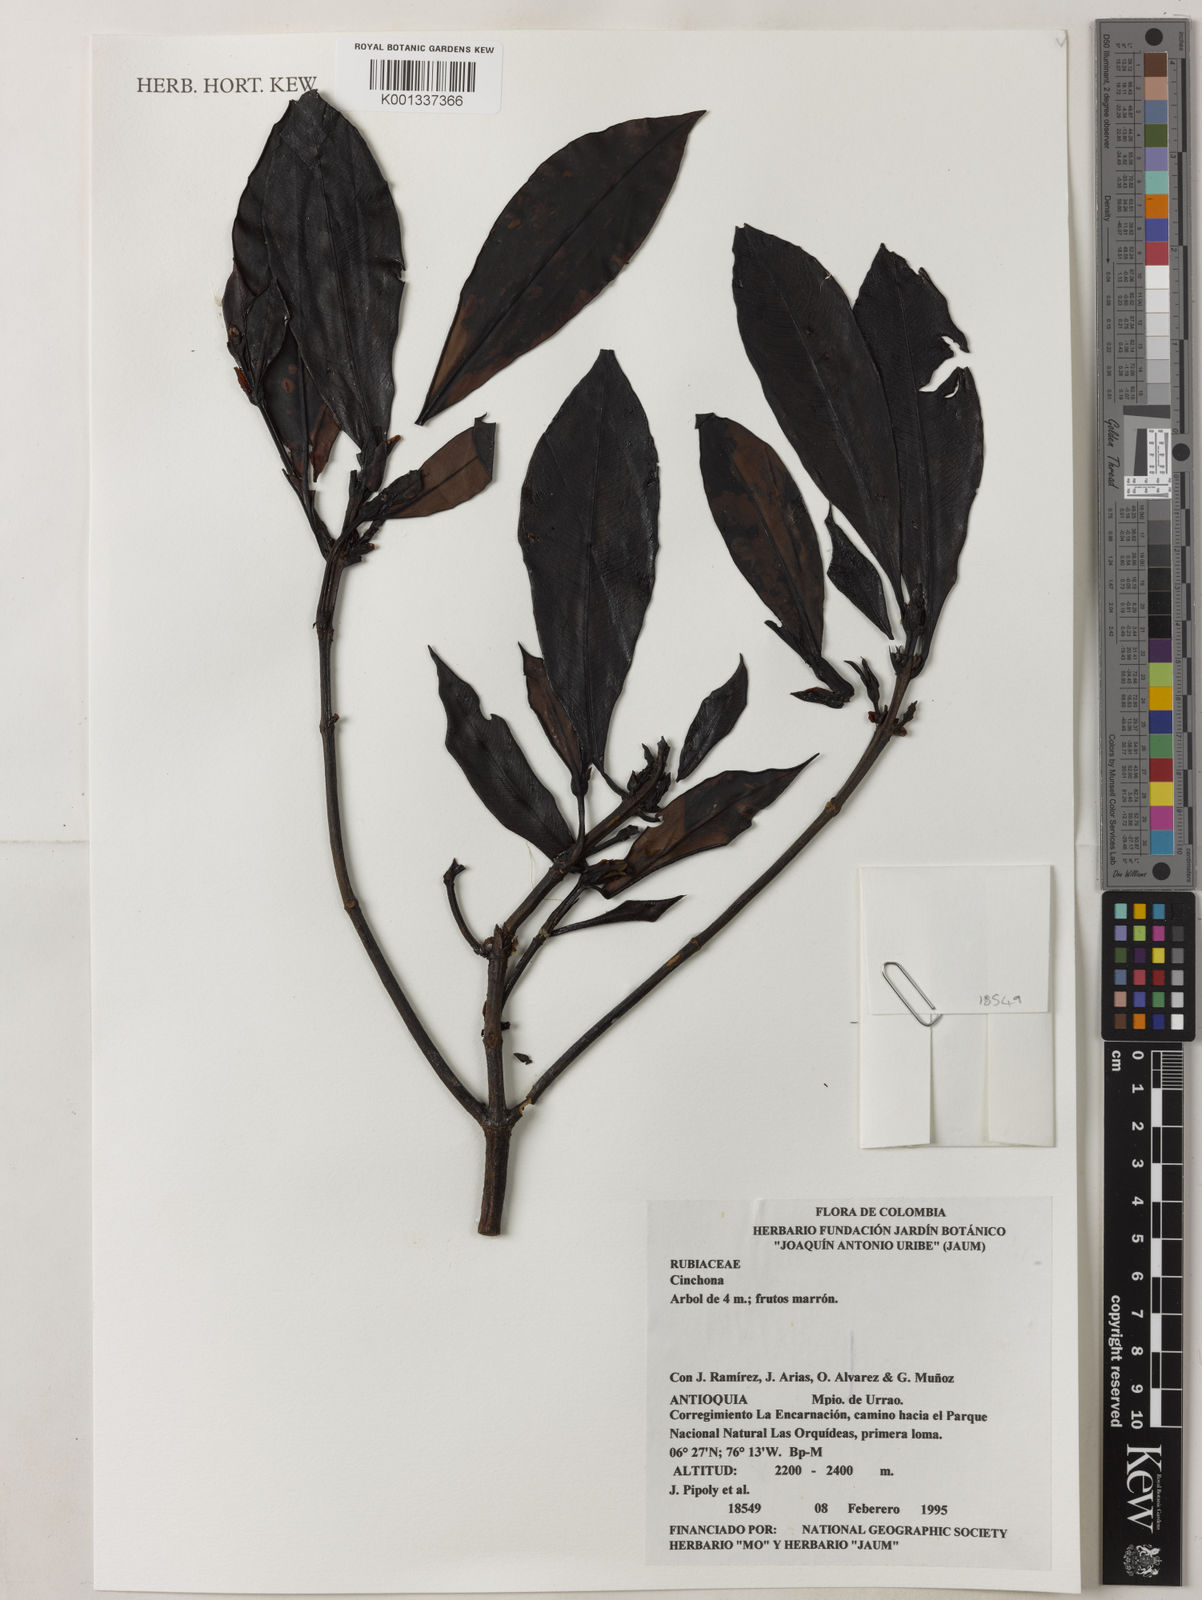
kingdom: Plantae
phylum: Tracheophyta
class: Magnoliopsida
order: Gentianales
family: Rubiaceae
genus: Cinchona
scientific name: Cinchona
